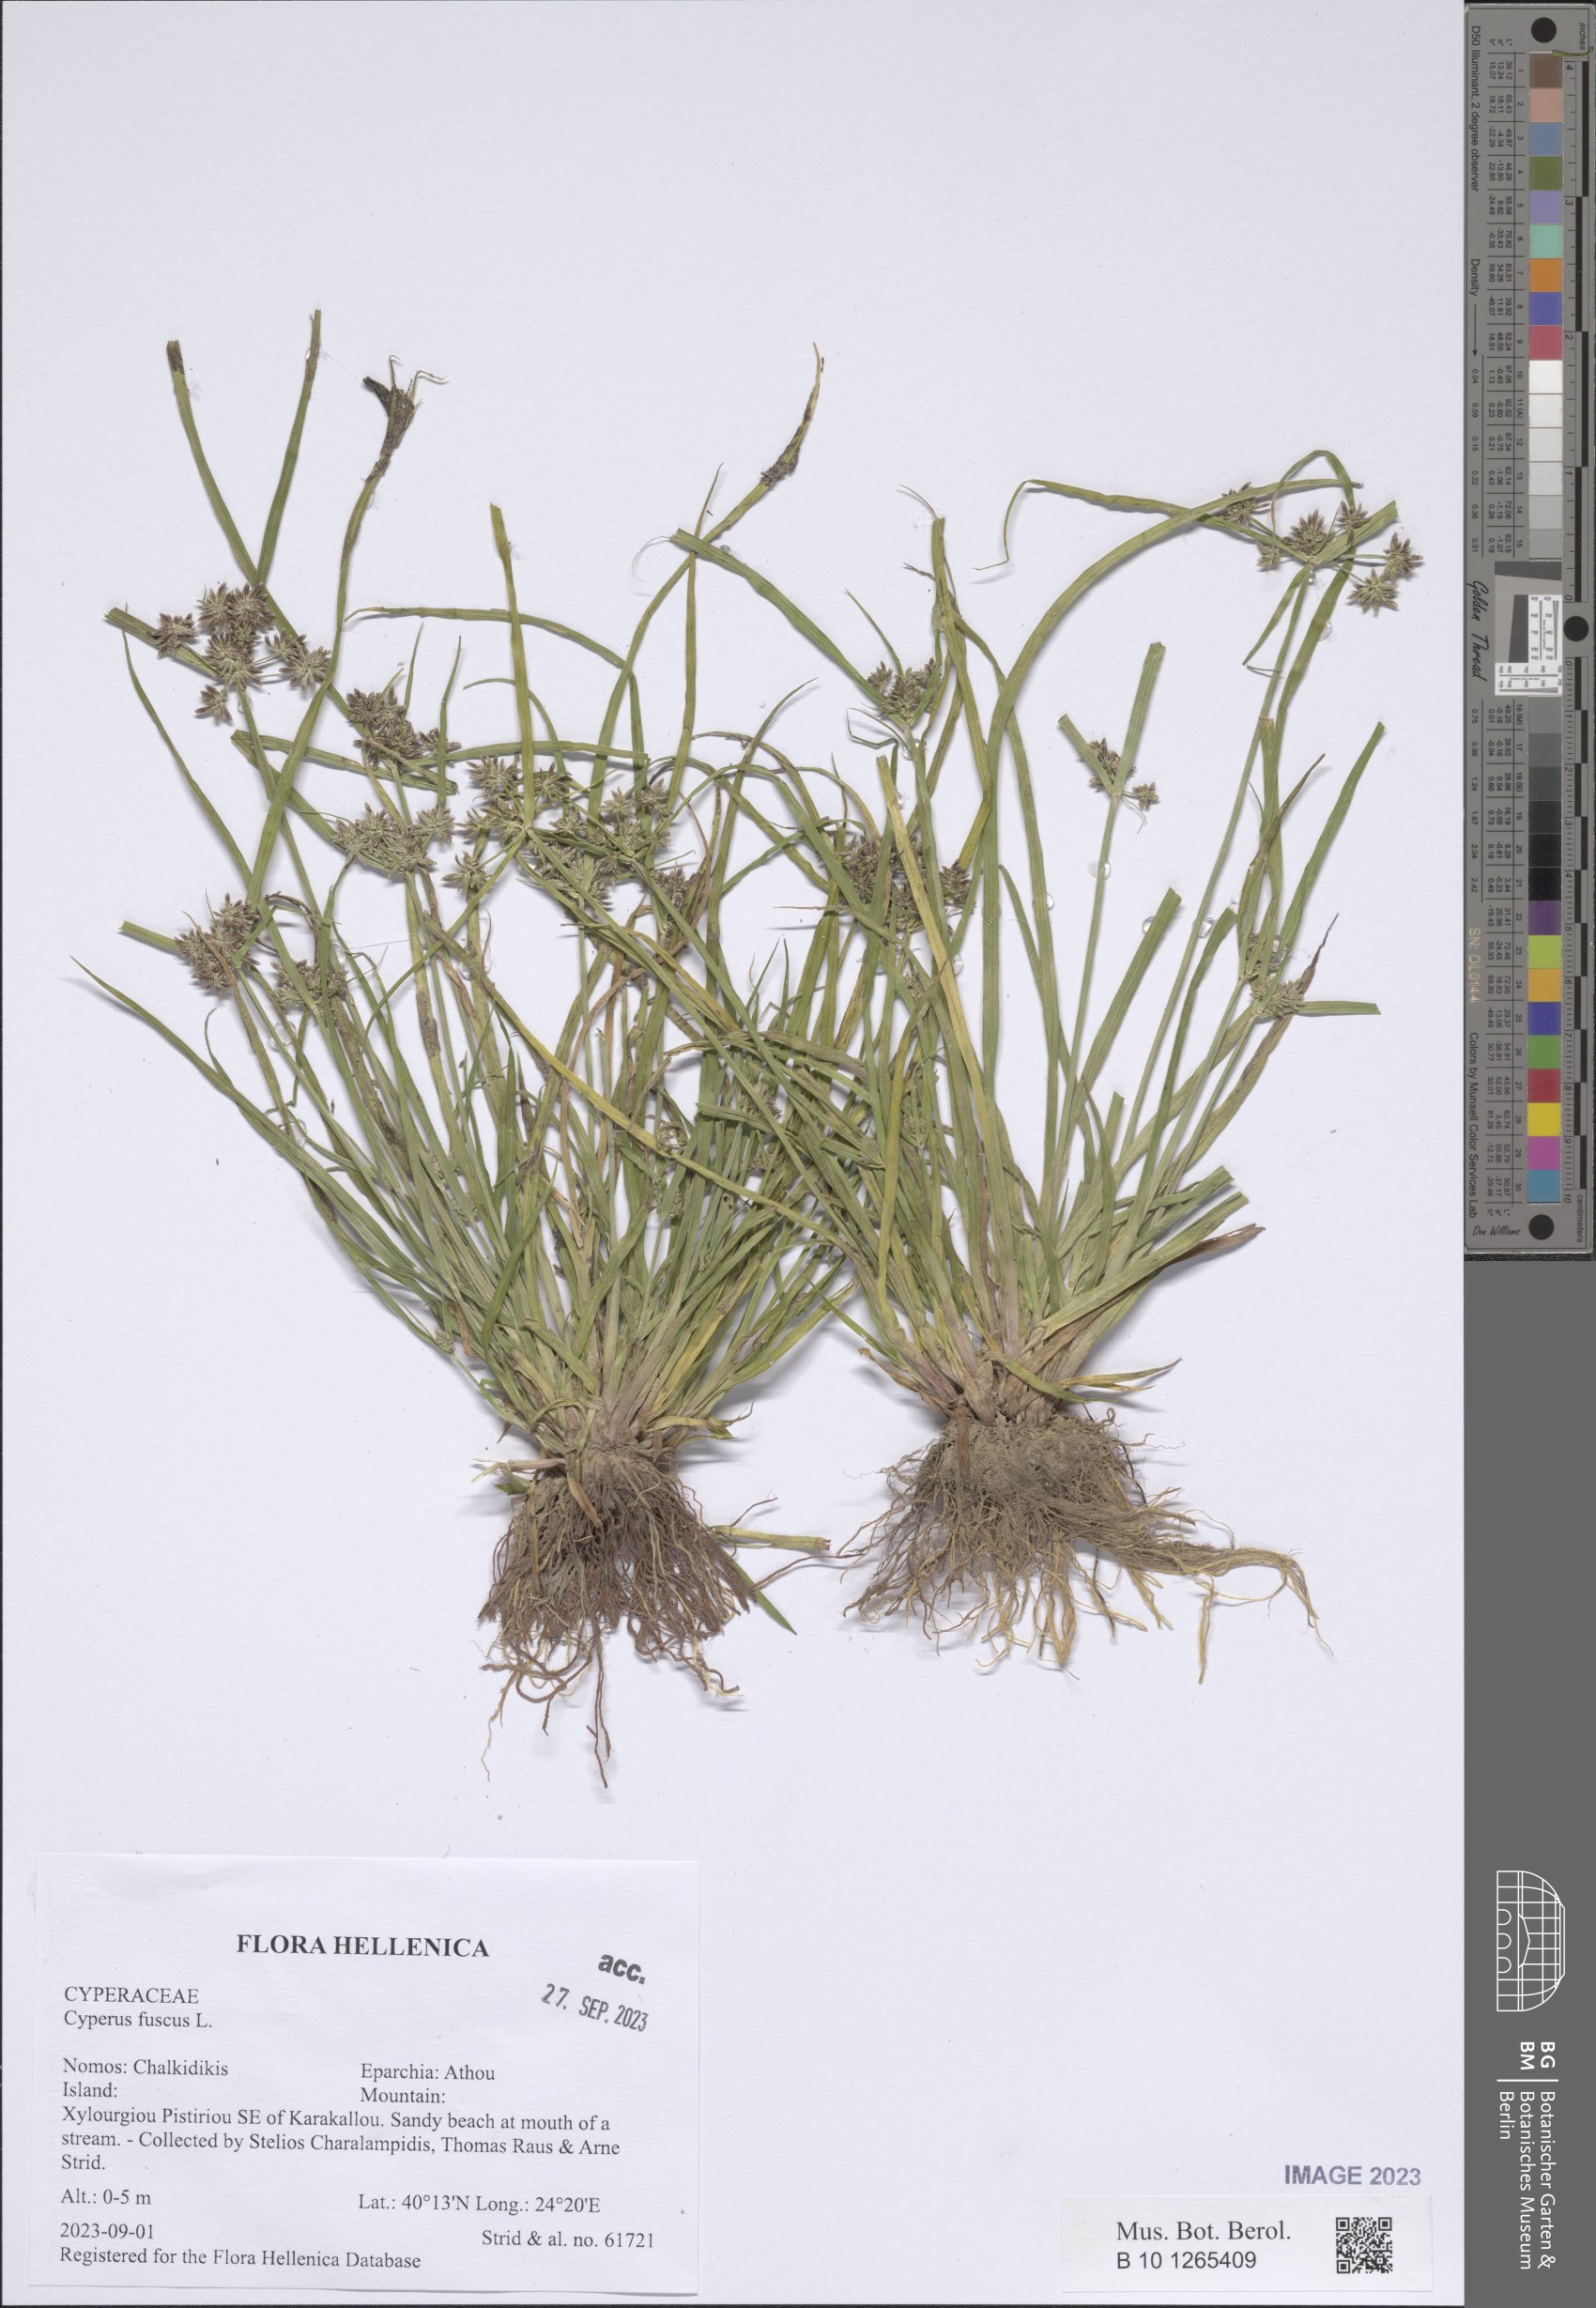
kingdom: Plantae
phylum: Tracheophyta
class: Liliopsida
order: Poales
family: Cyperaceae
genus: Cyperus
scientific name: Cyperus fuscus
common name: Brown galingale
